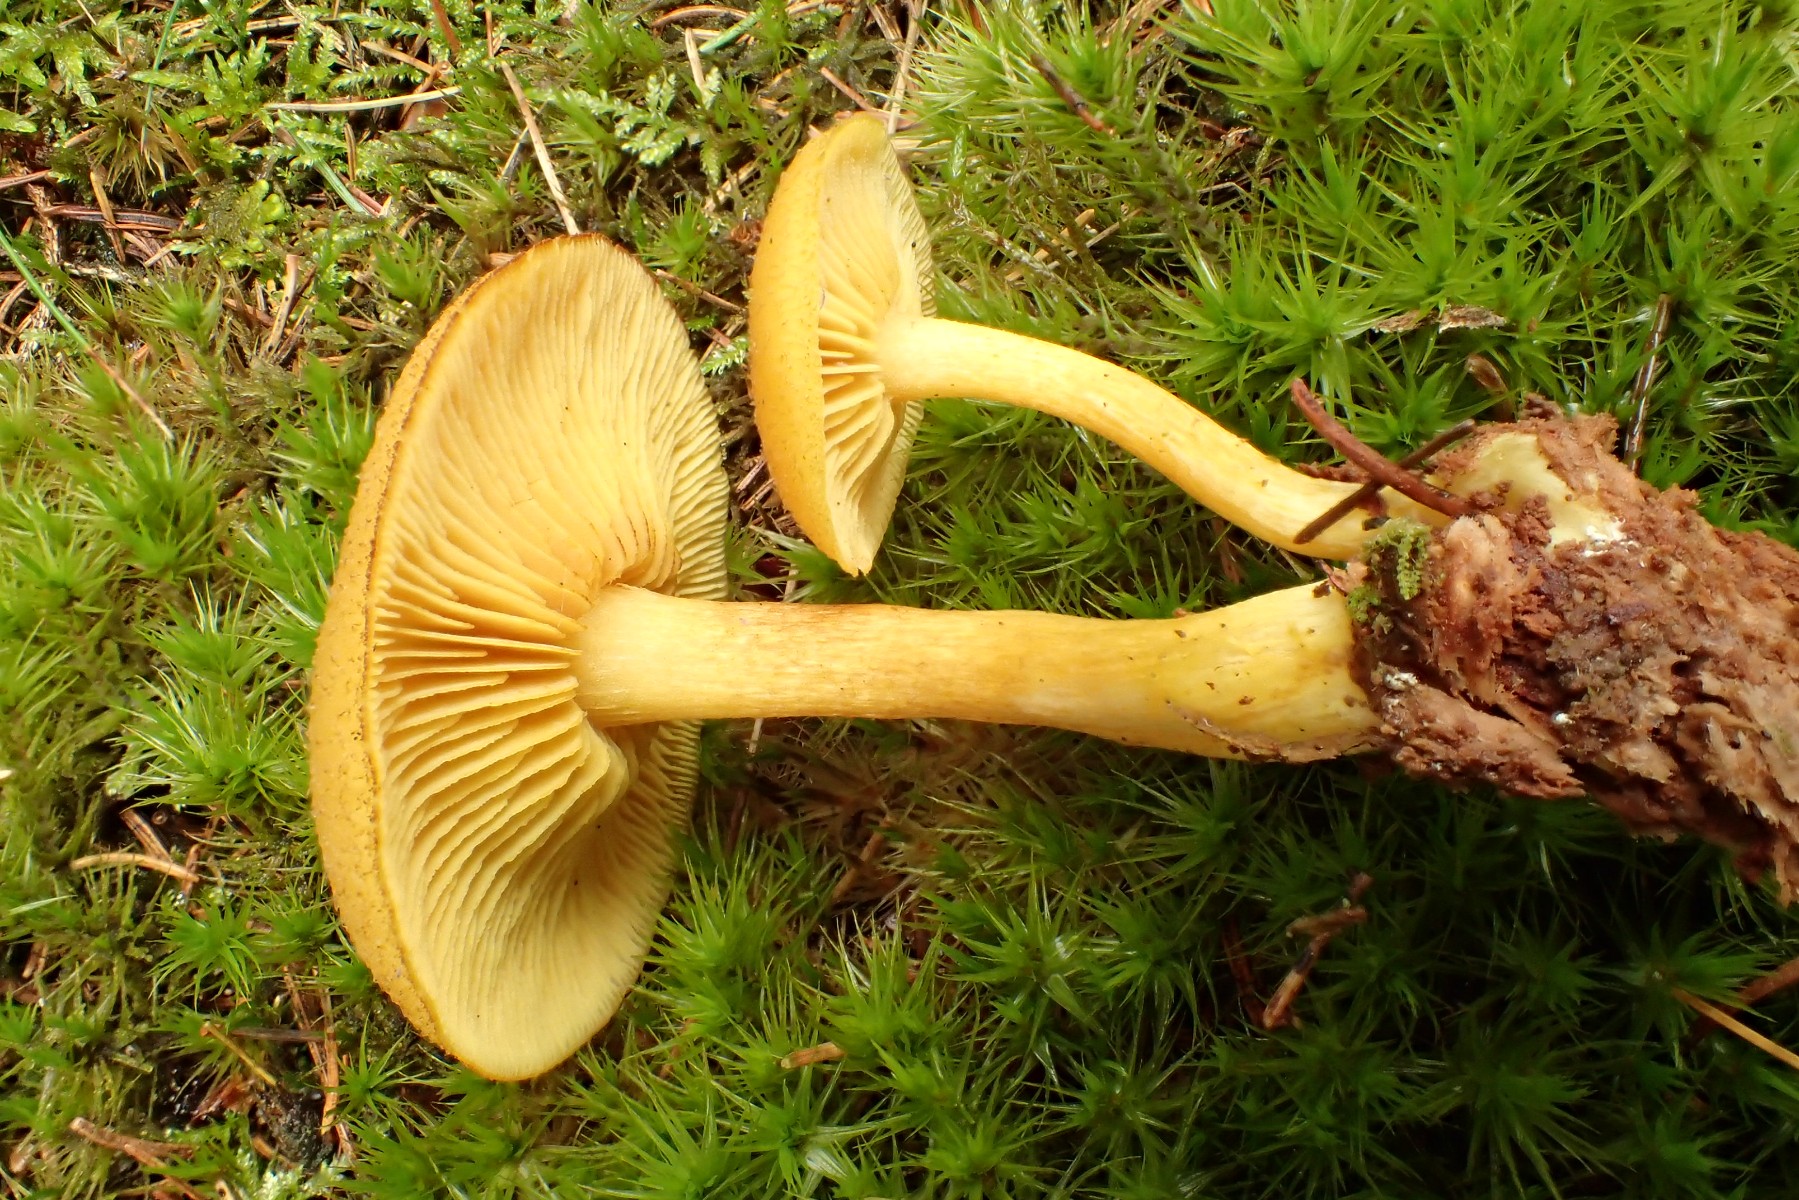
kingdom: Fungi
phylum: Basidiomycota
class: Agaricomycetes
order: Agaricales
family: Tricholomataceae
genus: Tricholomopsis
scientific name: Tricholomopsis decora
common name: sortskællet væbnerhat
